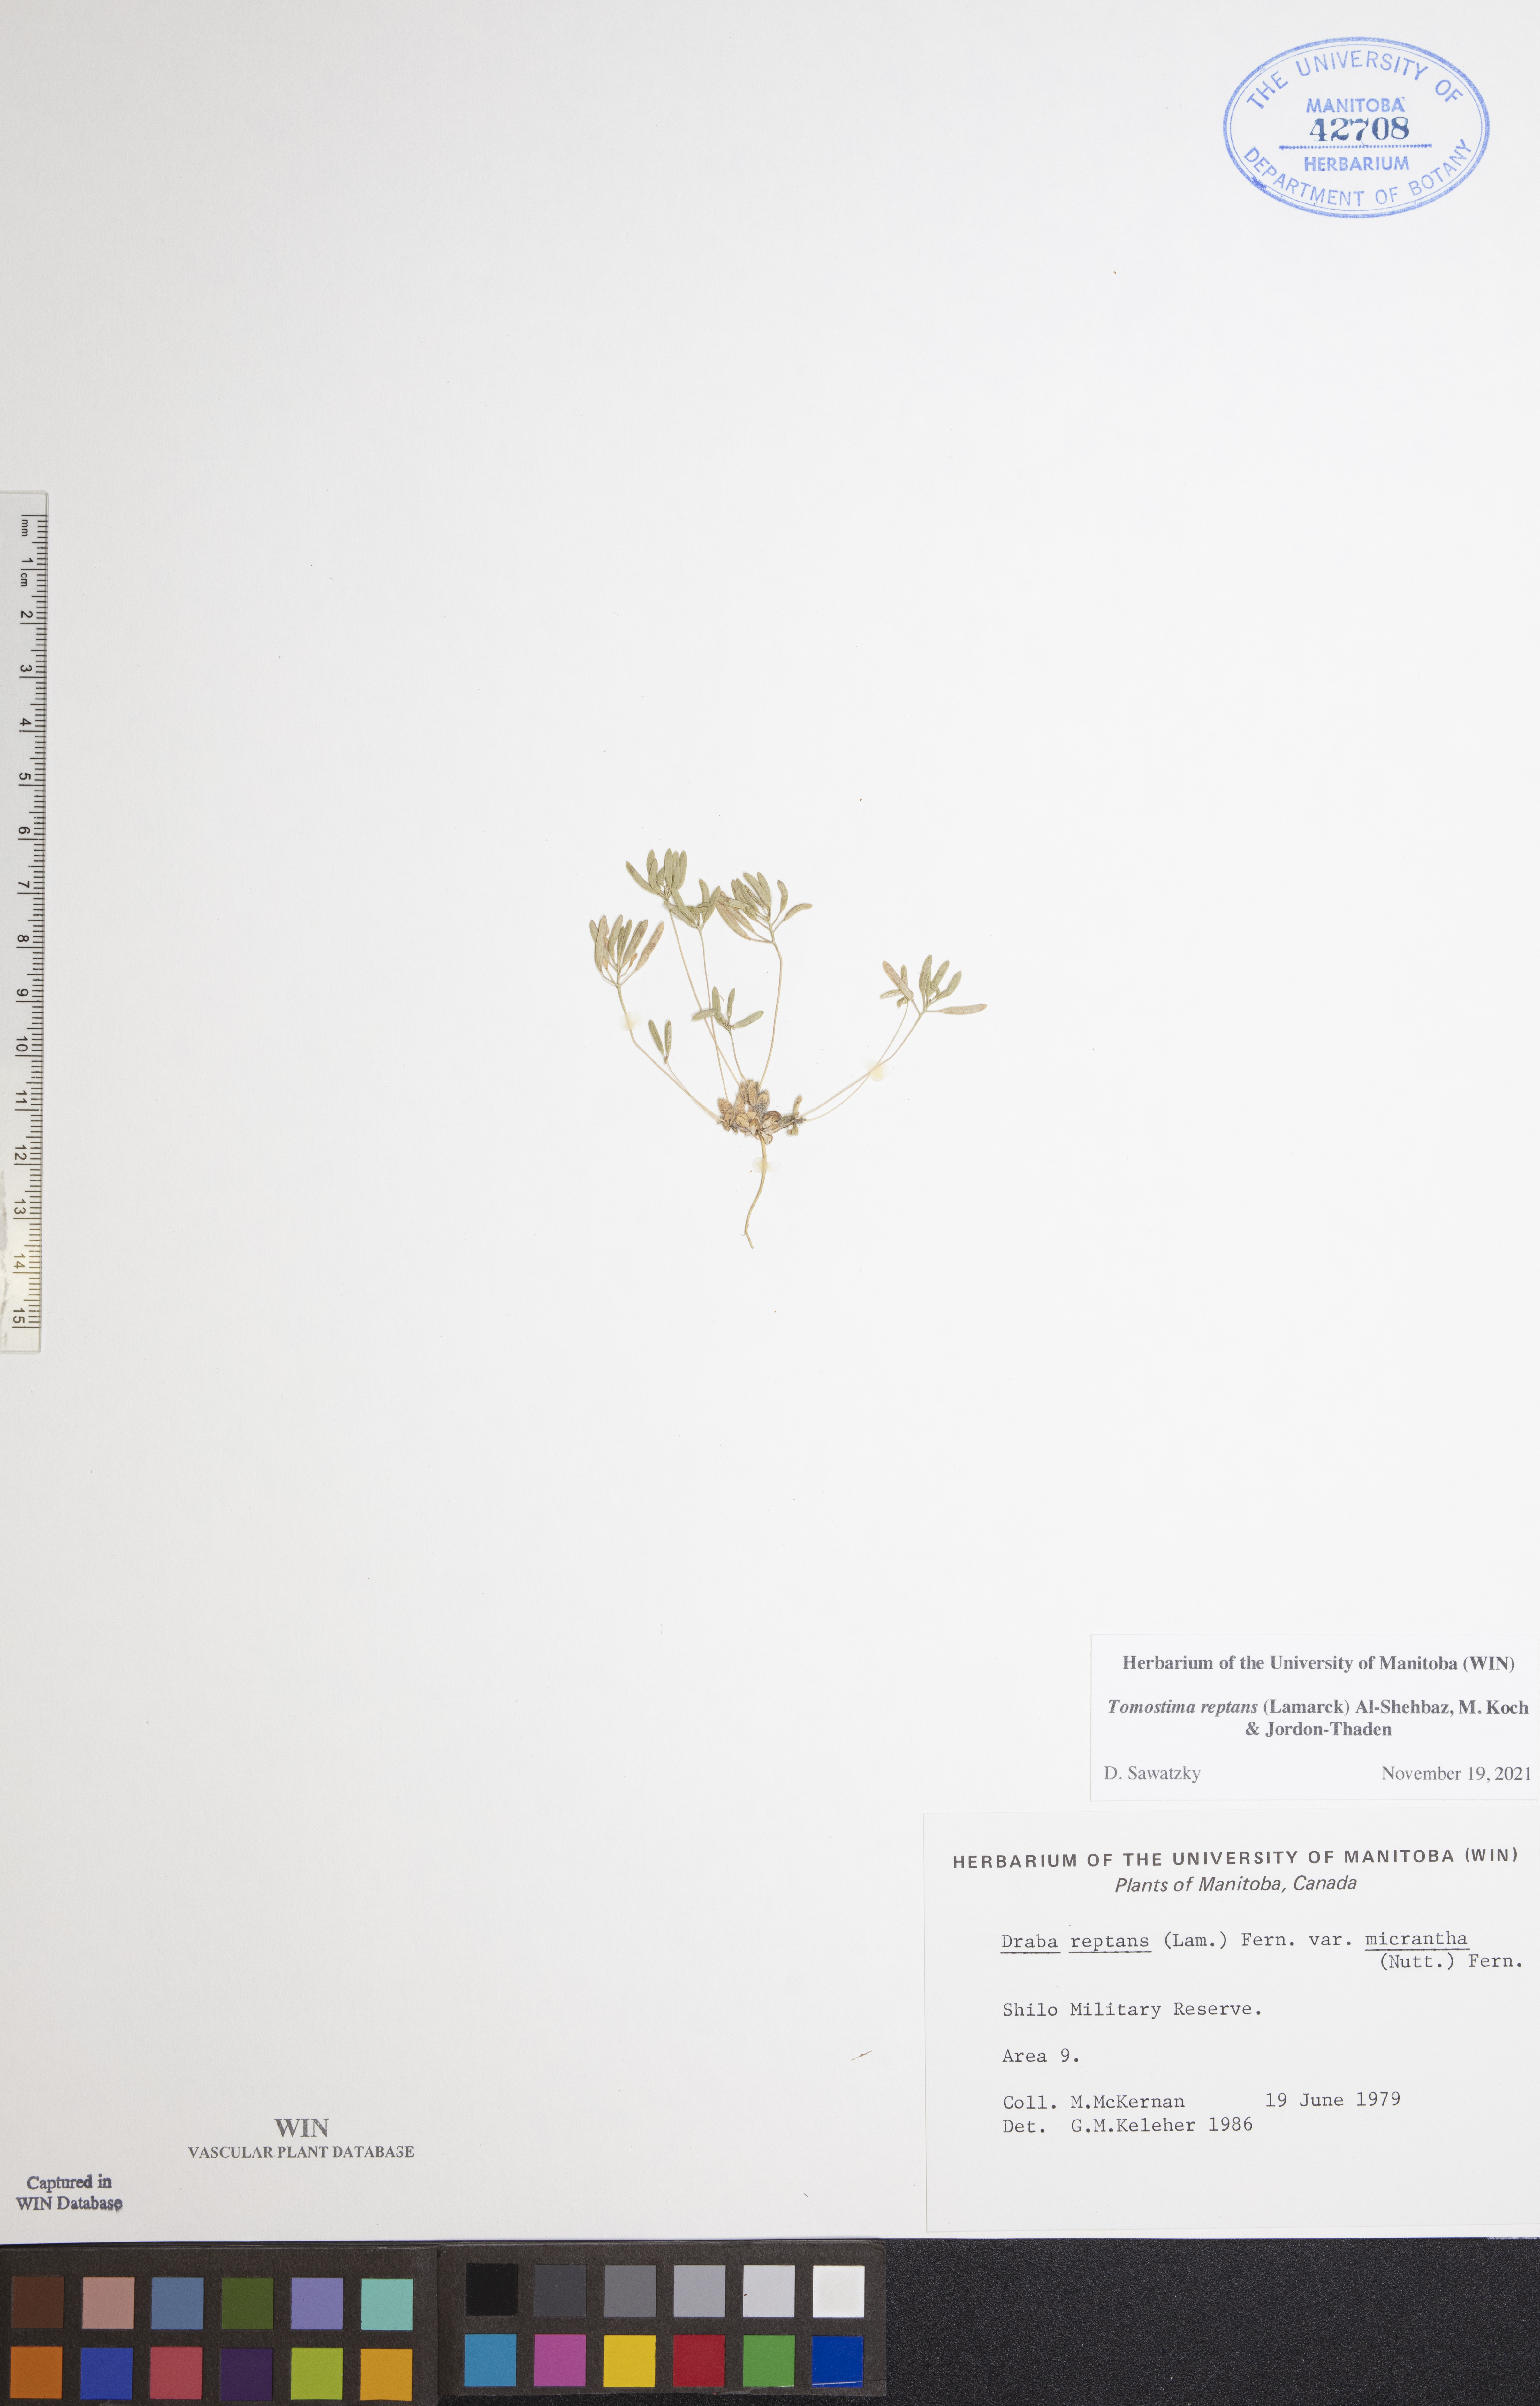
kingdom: Plantae
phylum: Tracheophyta
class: Magnoliopsida
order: Brassicales
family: Brassicaceae
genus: Tomostima
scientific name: Tomostima reptans
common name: Carolina draba
